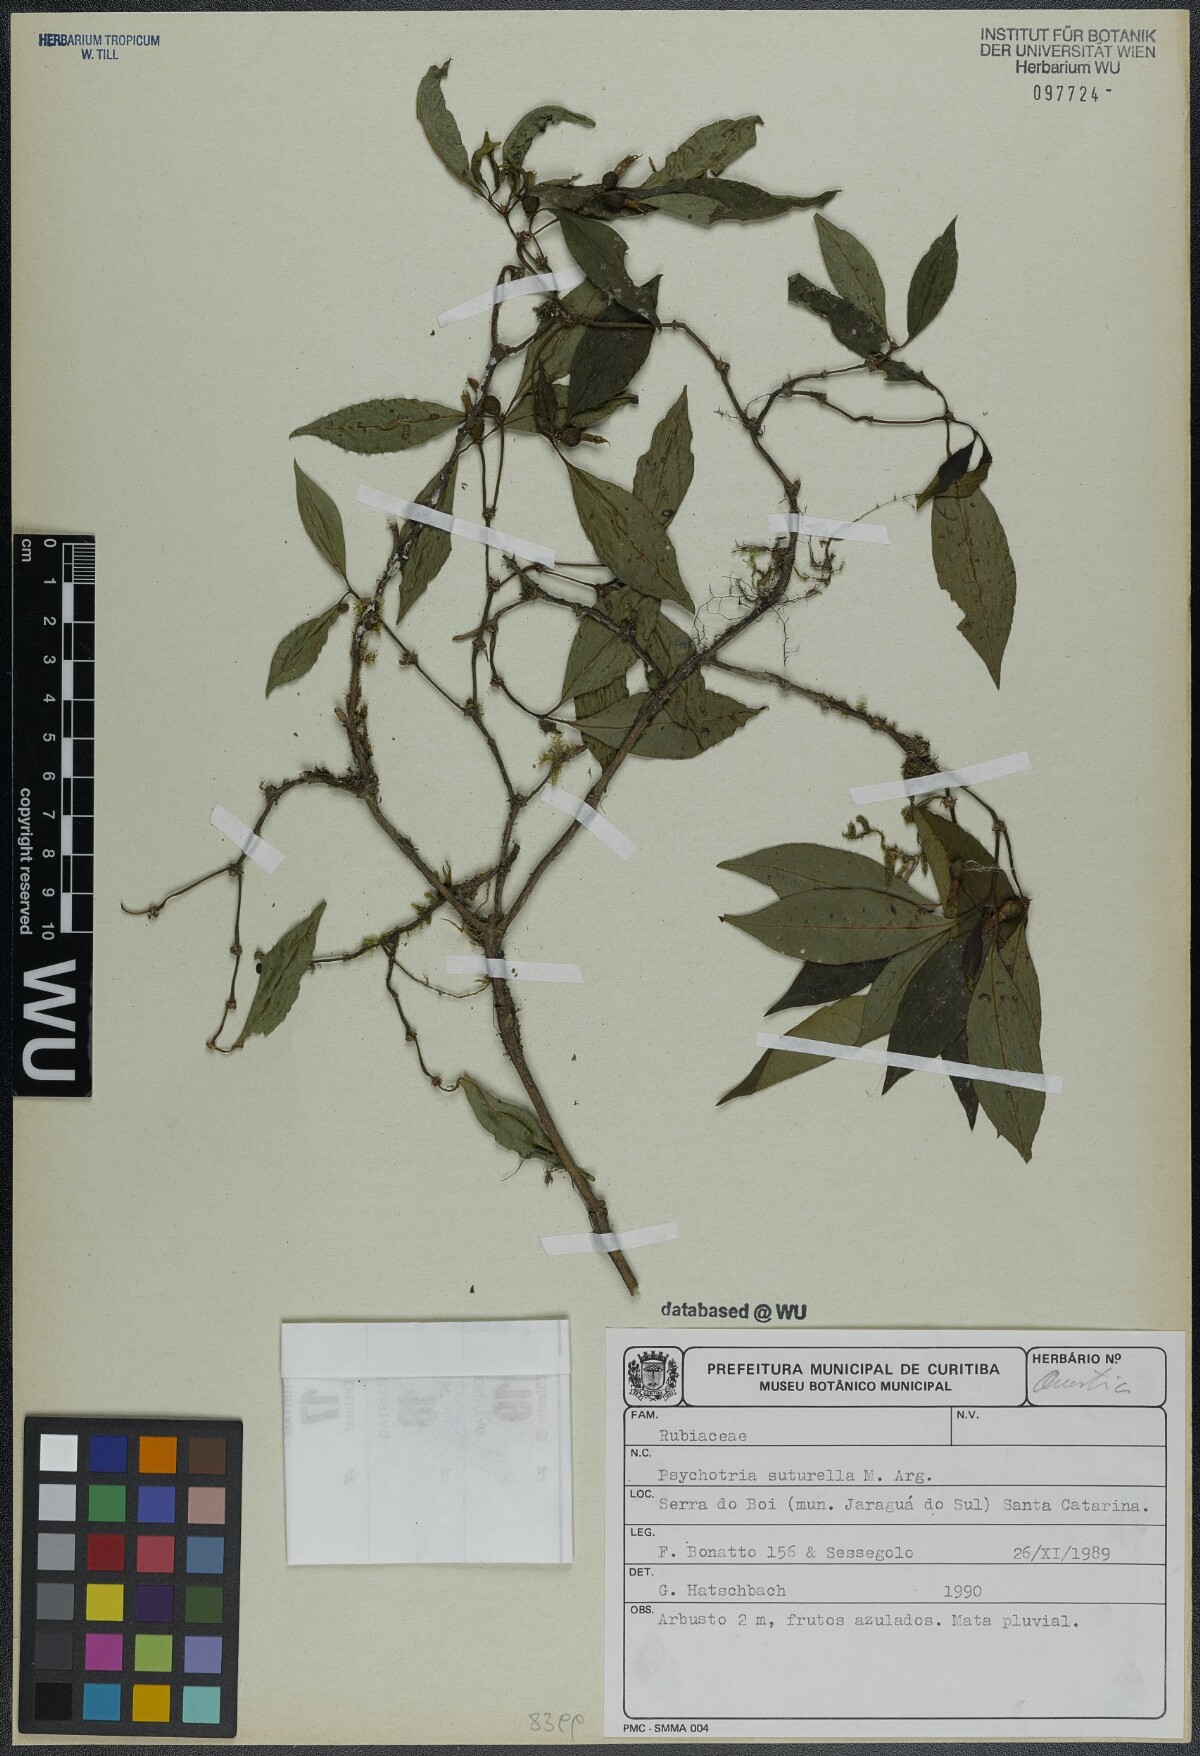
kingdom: Plantae
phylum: Tracheophyta
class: Magnoliopsida
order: Gentianales
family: Rubiaceae
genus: Psychotria
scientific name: Psychotria suterella
